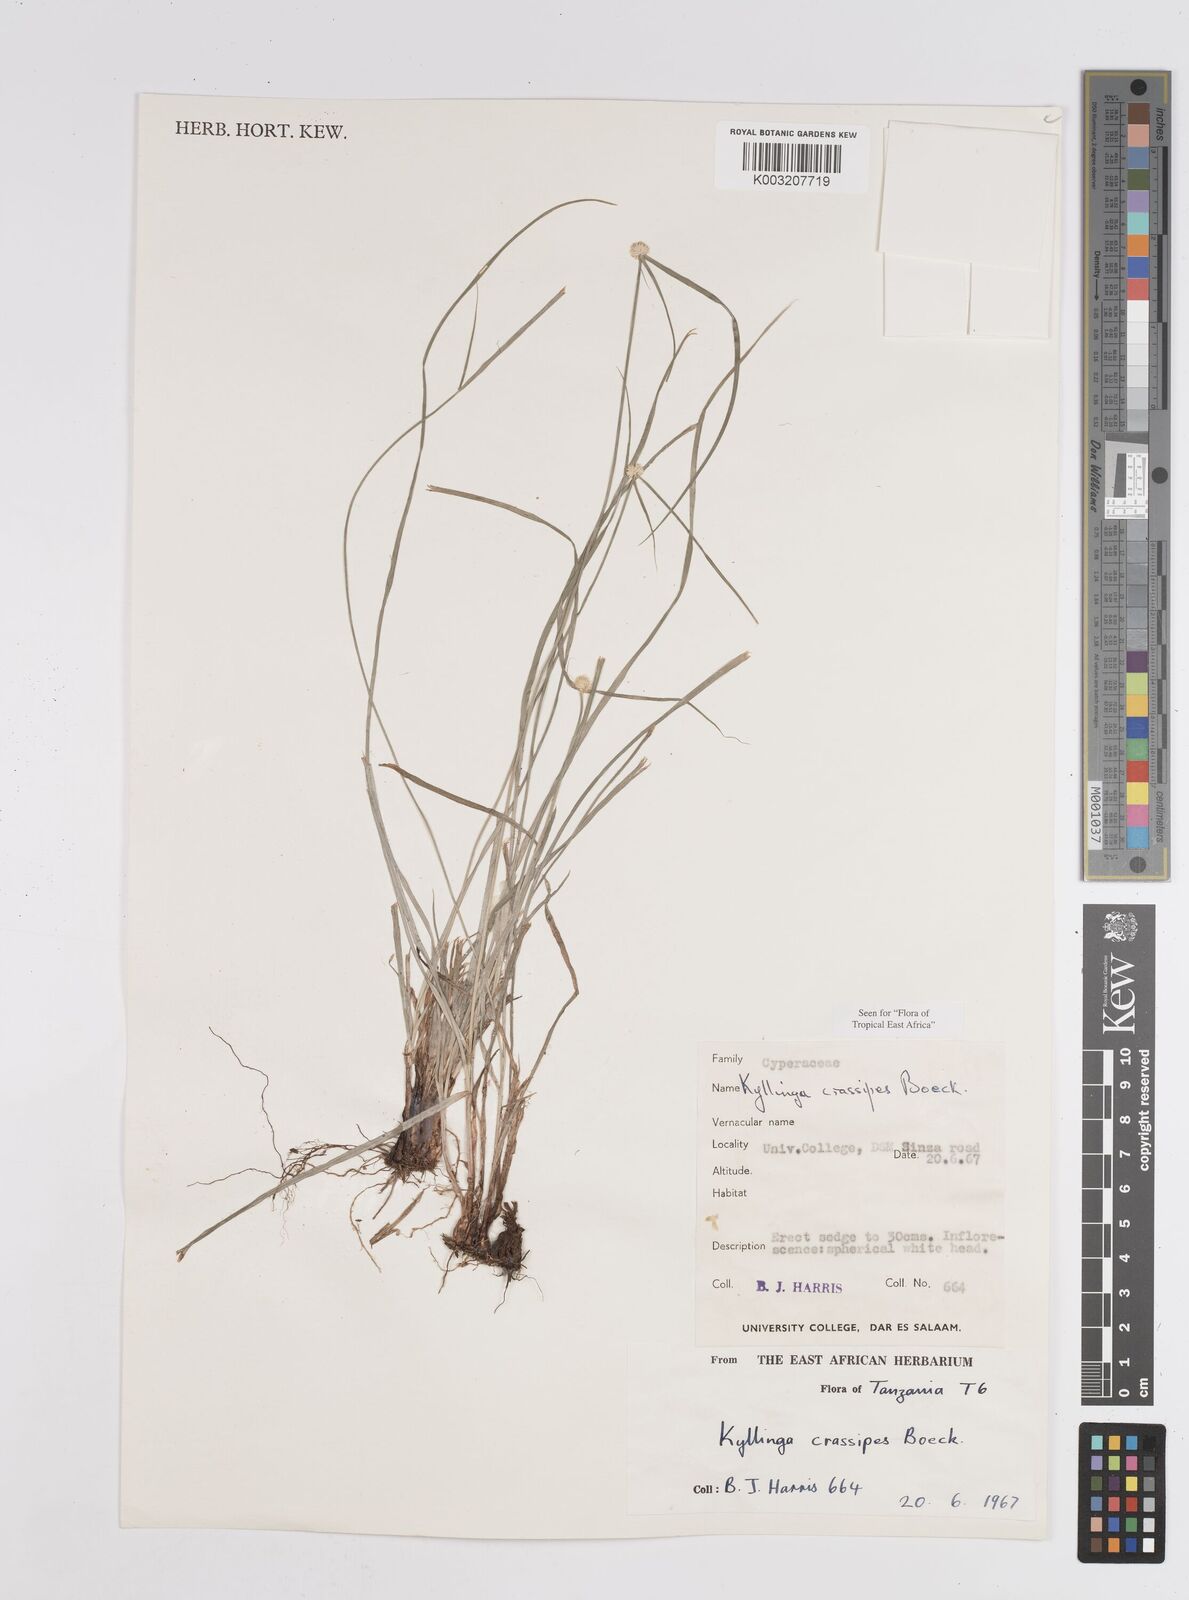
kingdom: Plantae
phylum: Tracheophyta
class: Liliopsida
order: Poales
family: Cyperaceae
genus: Cyperus
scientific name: Cyperus
